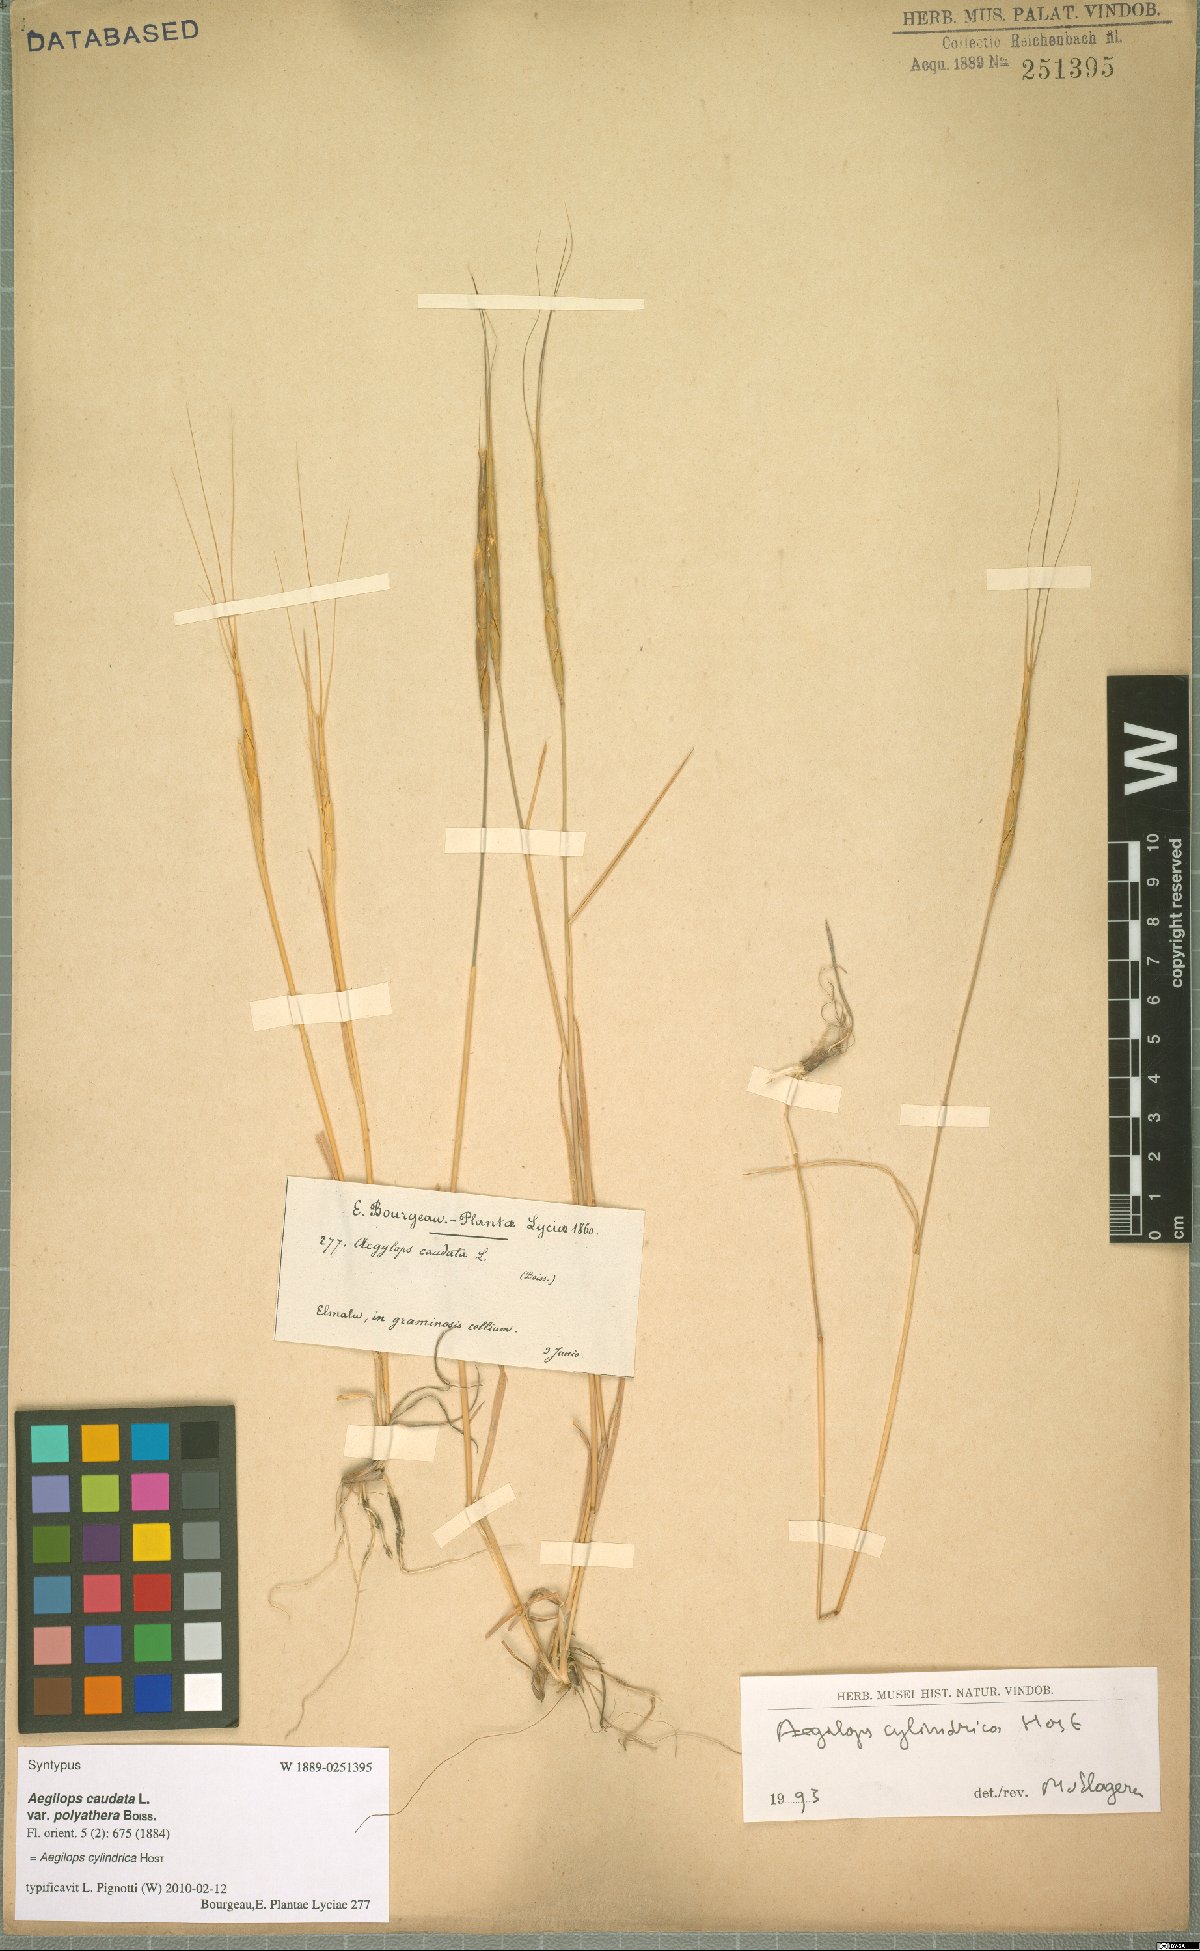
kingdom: Plantae
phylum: Tracheophyta
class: Liliopsida
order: Poales
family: Poaceae
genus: Aegilops
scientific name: Aegilops cylindrica
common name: Jointed goatgrass
